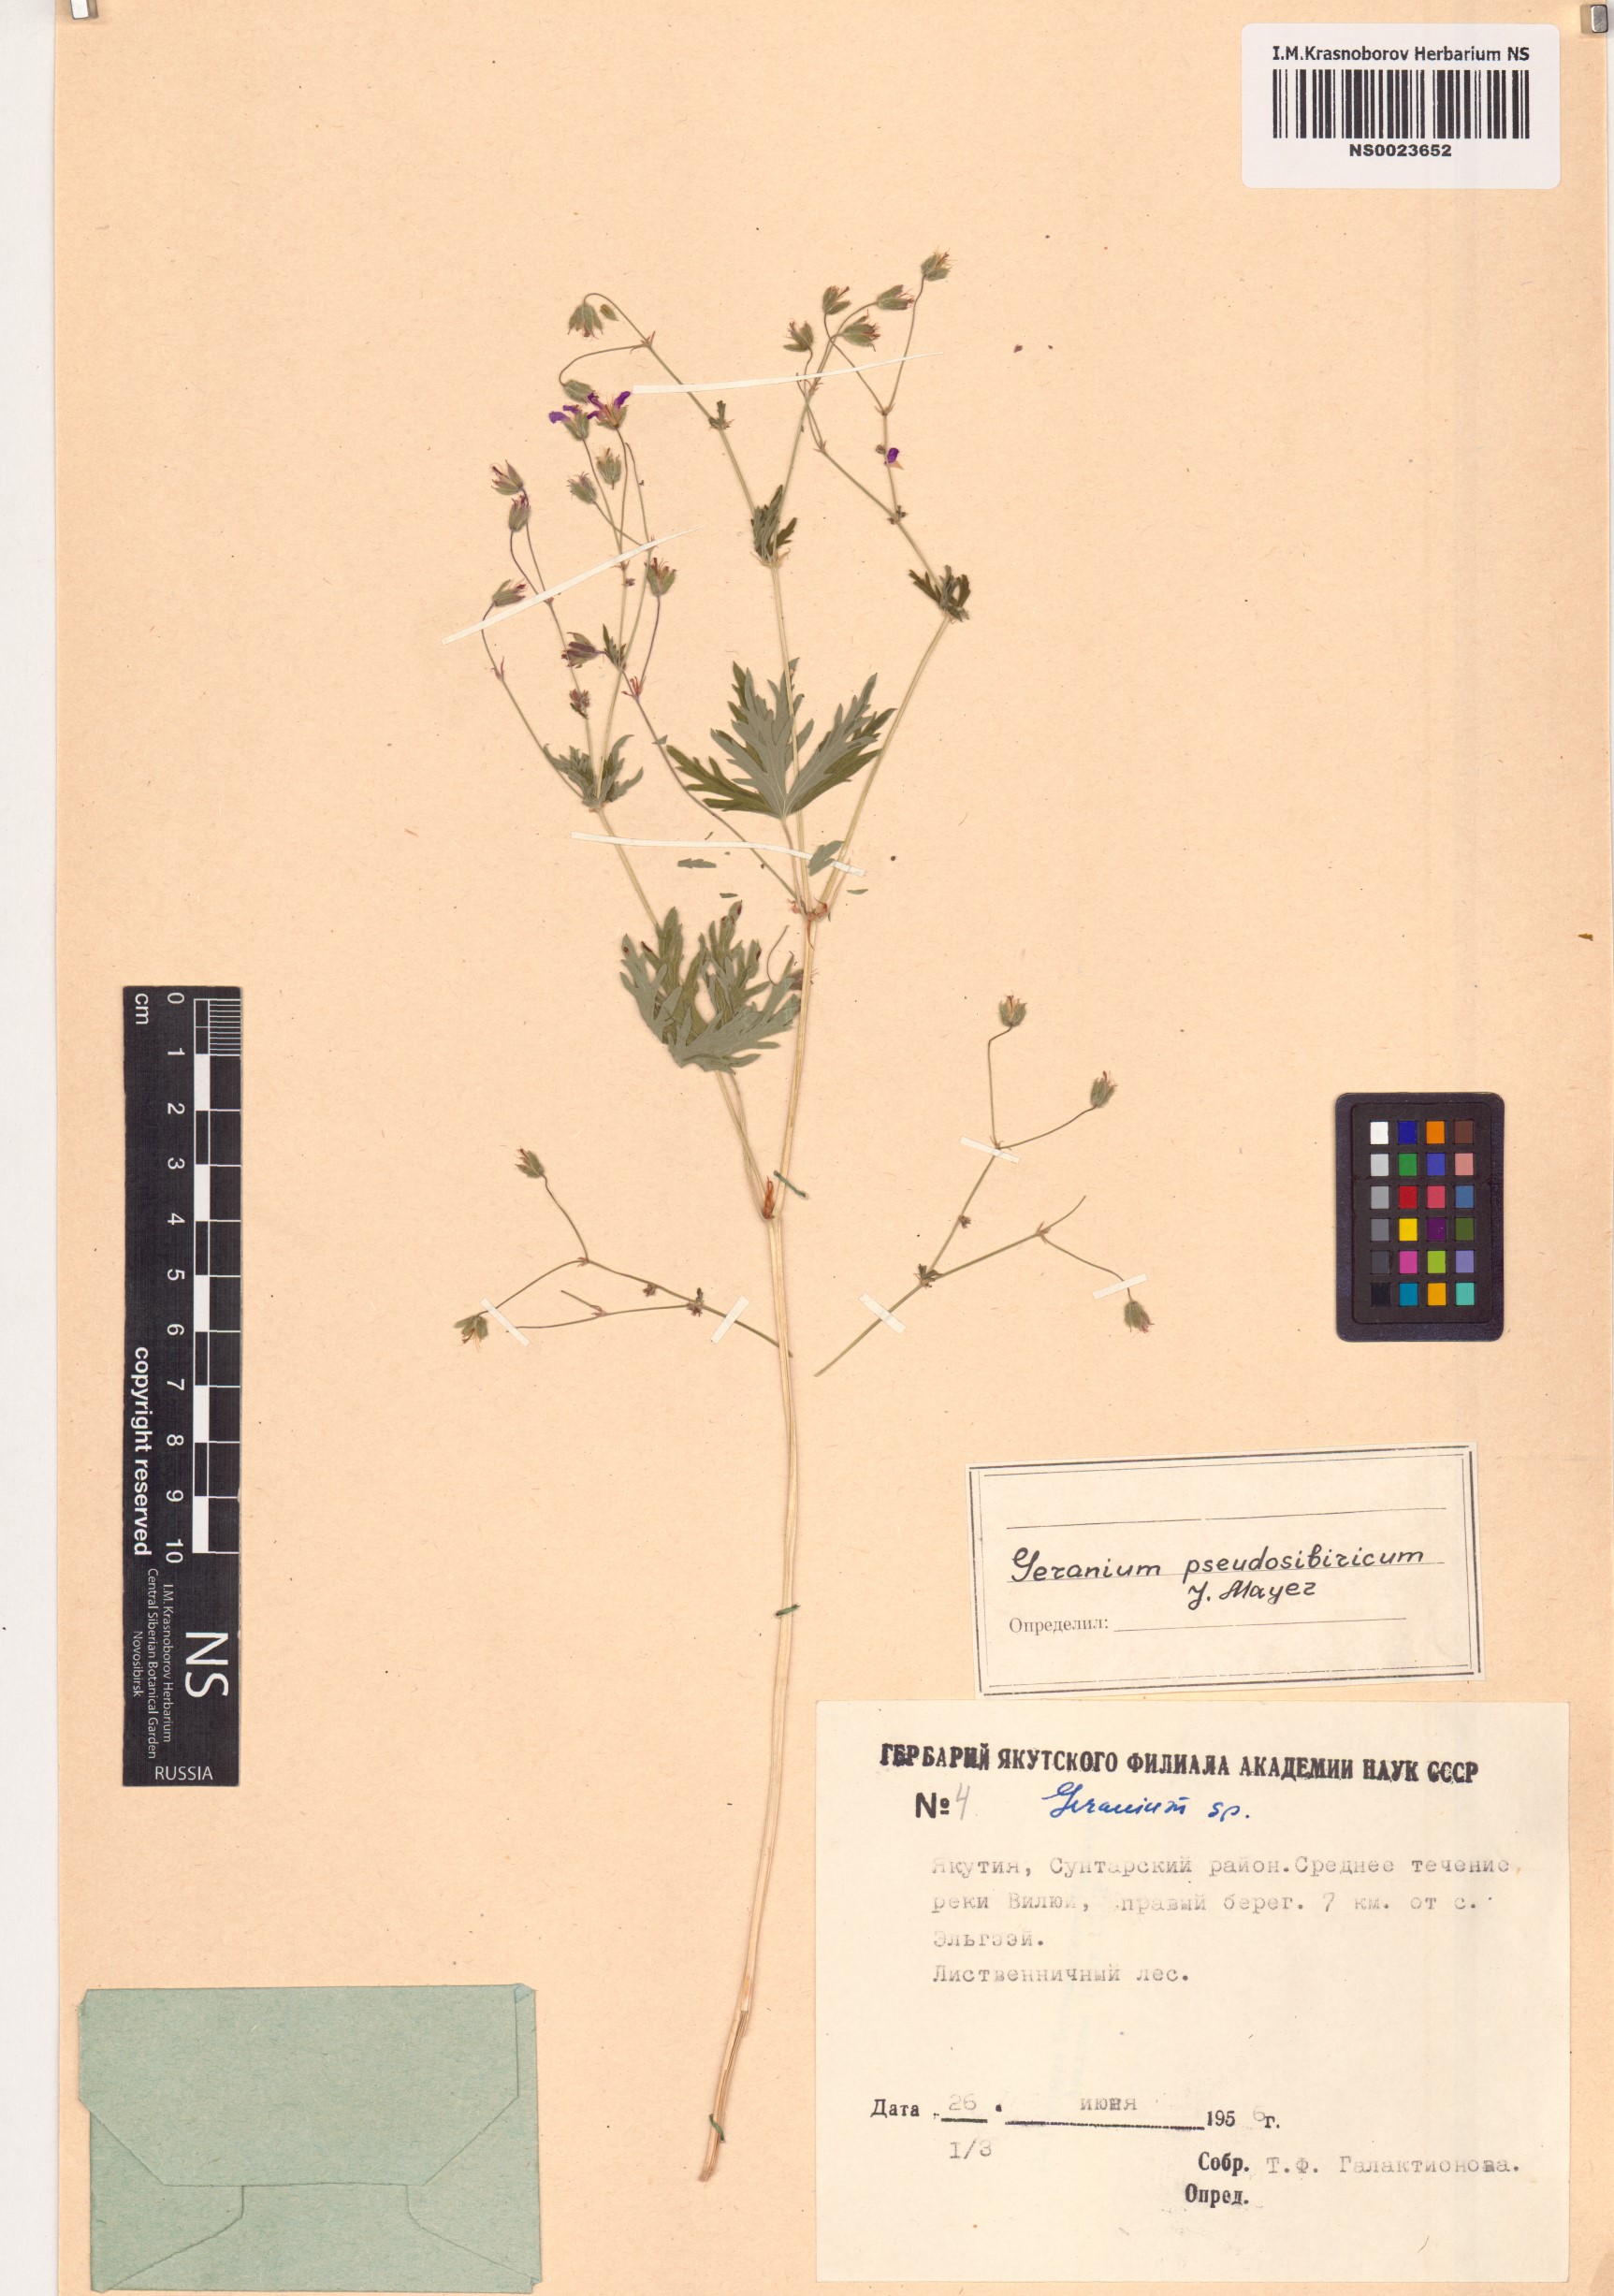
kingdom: Plantae
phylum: Tracheophyta
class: Magnoliopsida
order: Geraniales
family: Geraniaceae
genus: Geranium
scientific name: Geranium pseudosibiricum
